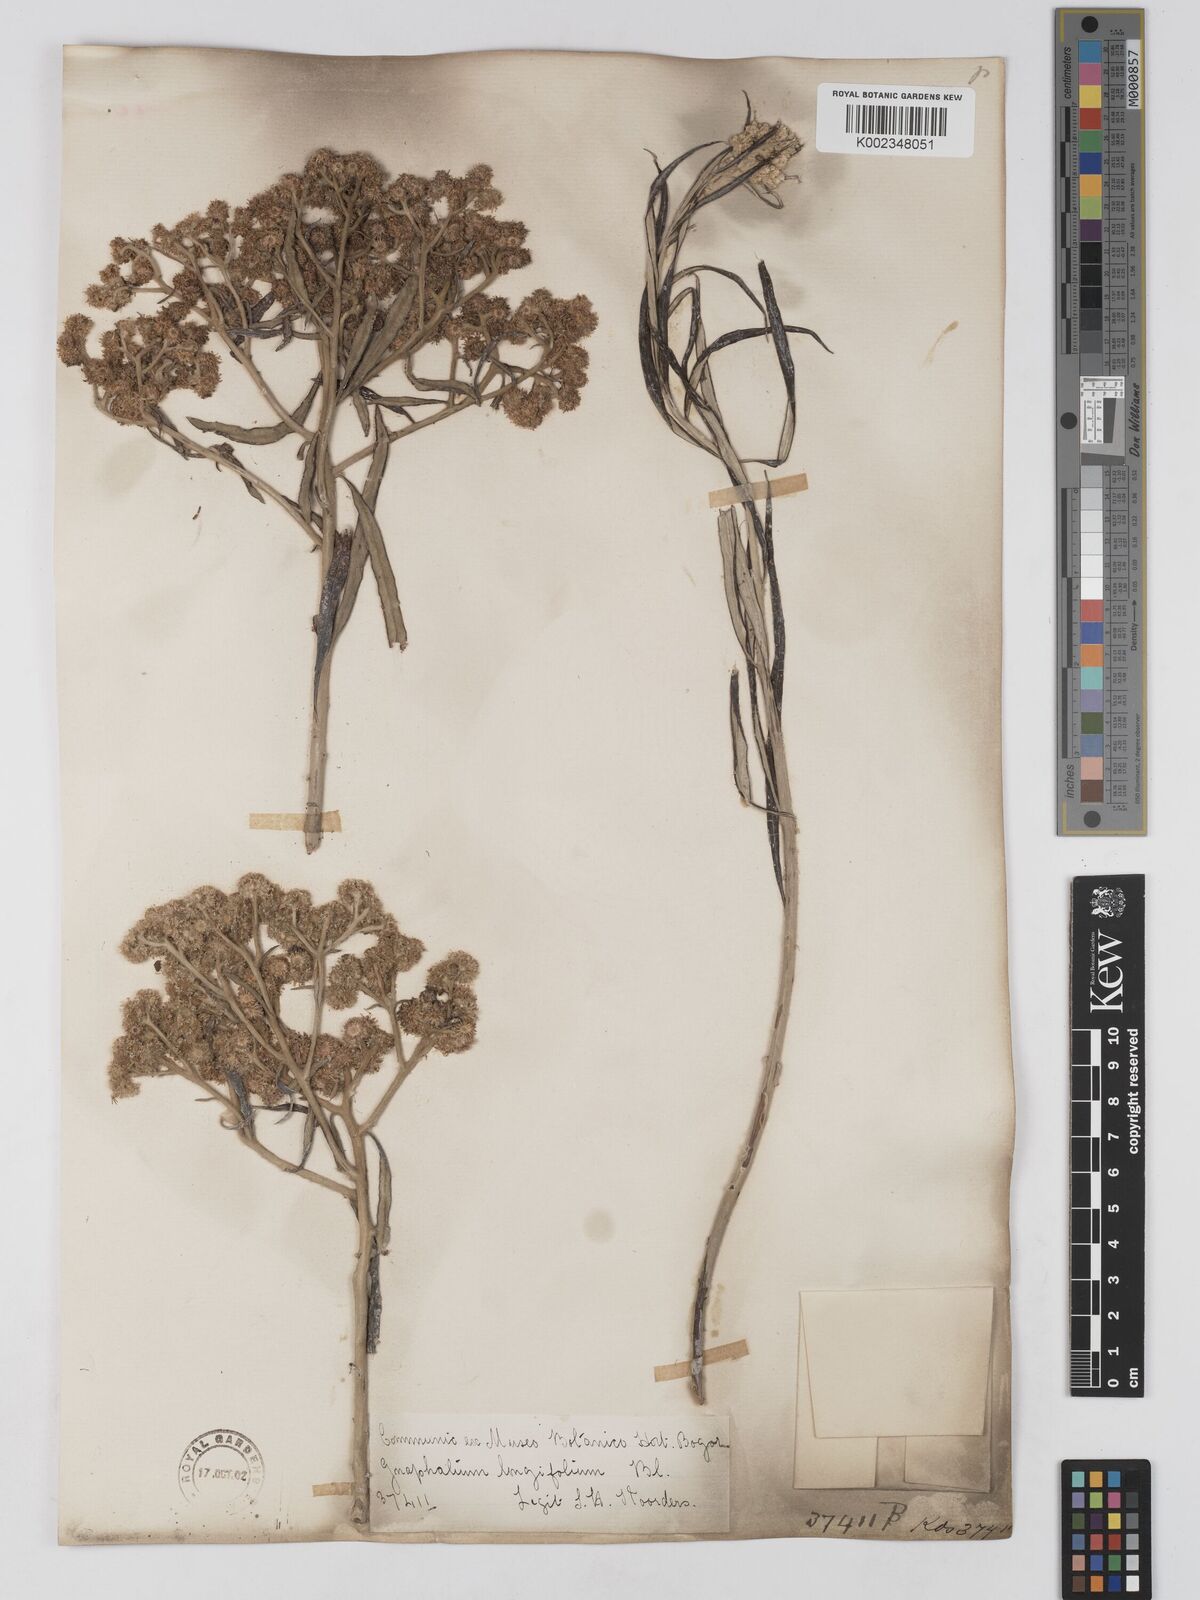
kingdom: Plantae
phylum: Tracheophyta
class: Magnoliopsida
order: Asterales
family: Asteraceae
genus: Anaphalis
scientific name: Anaphalis longifolia
